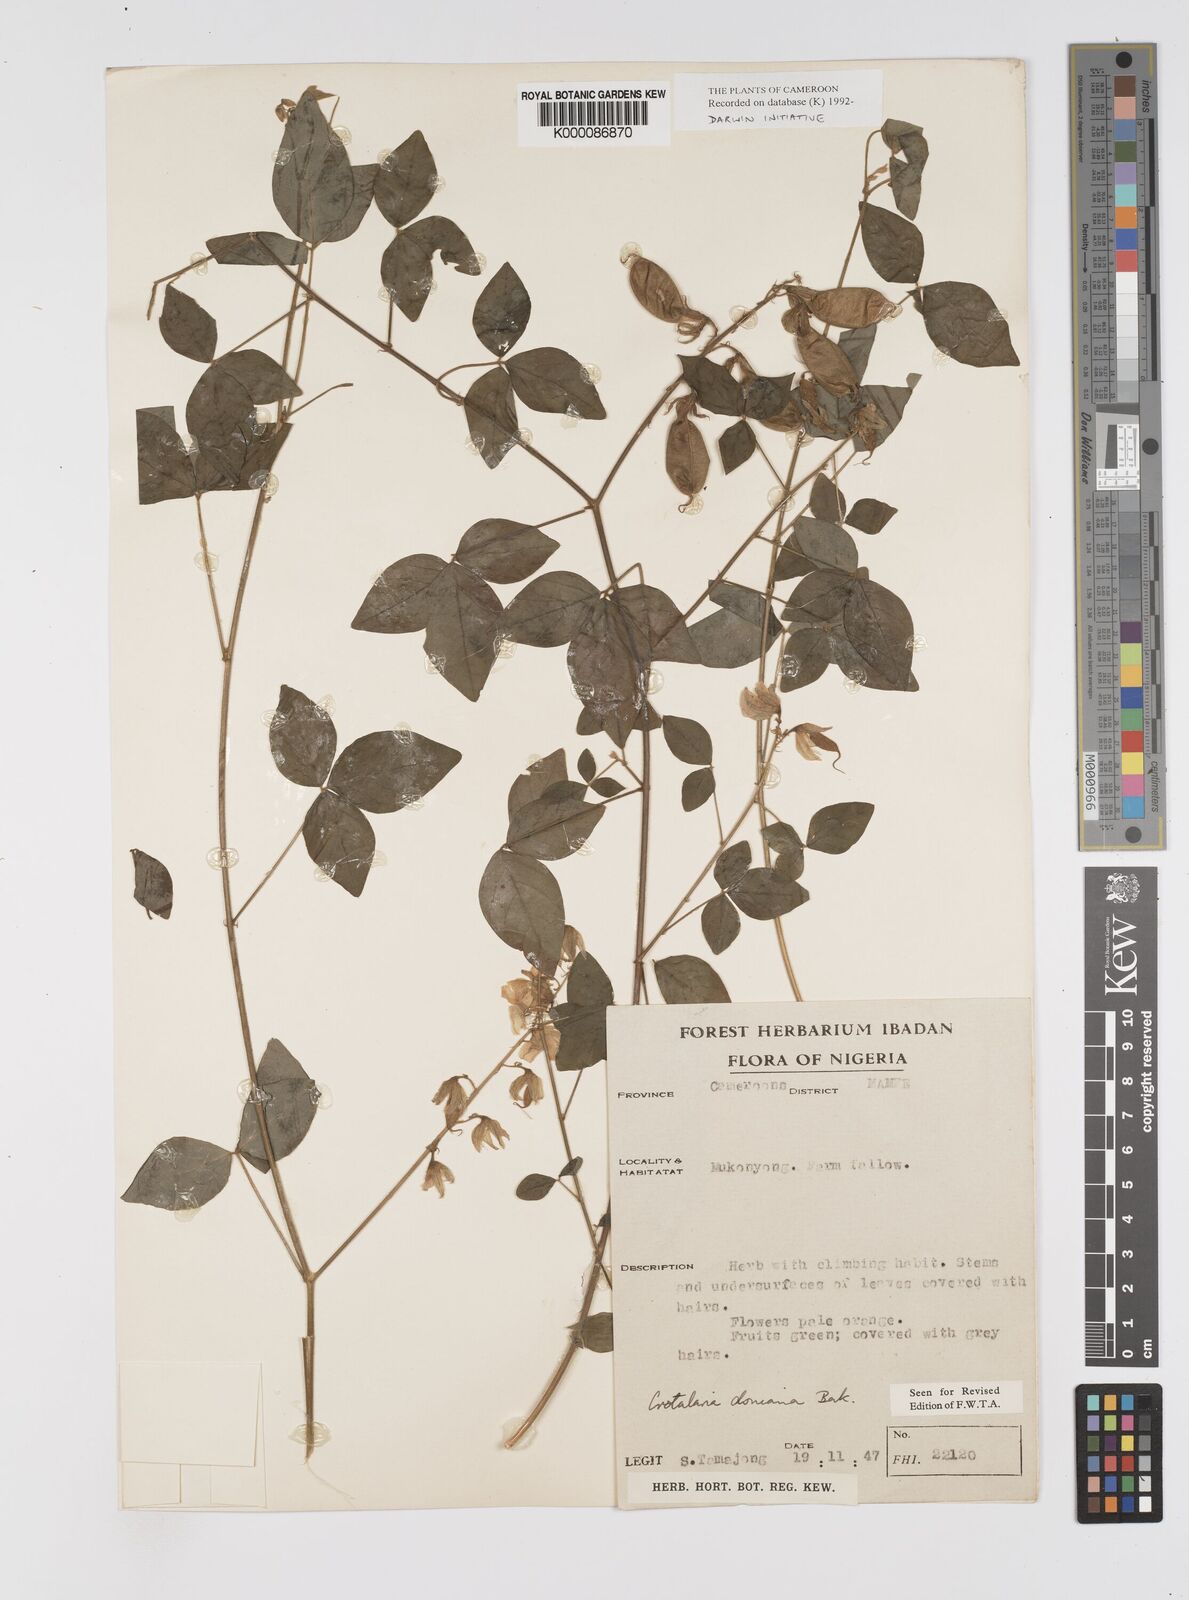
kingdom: Plantae
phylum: Tracheophyta
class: Magnoliopsida
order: Fabales
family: Fabaceae
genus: Crotalaria
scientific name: Crotalaria doniana
